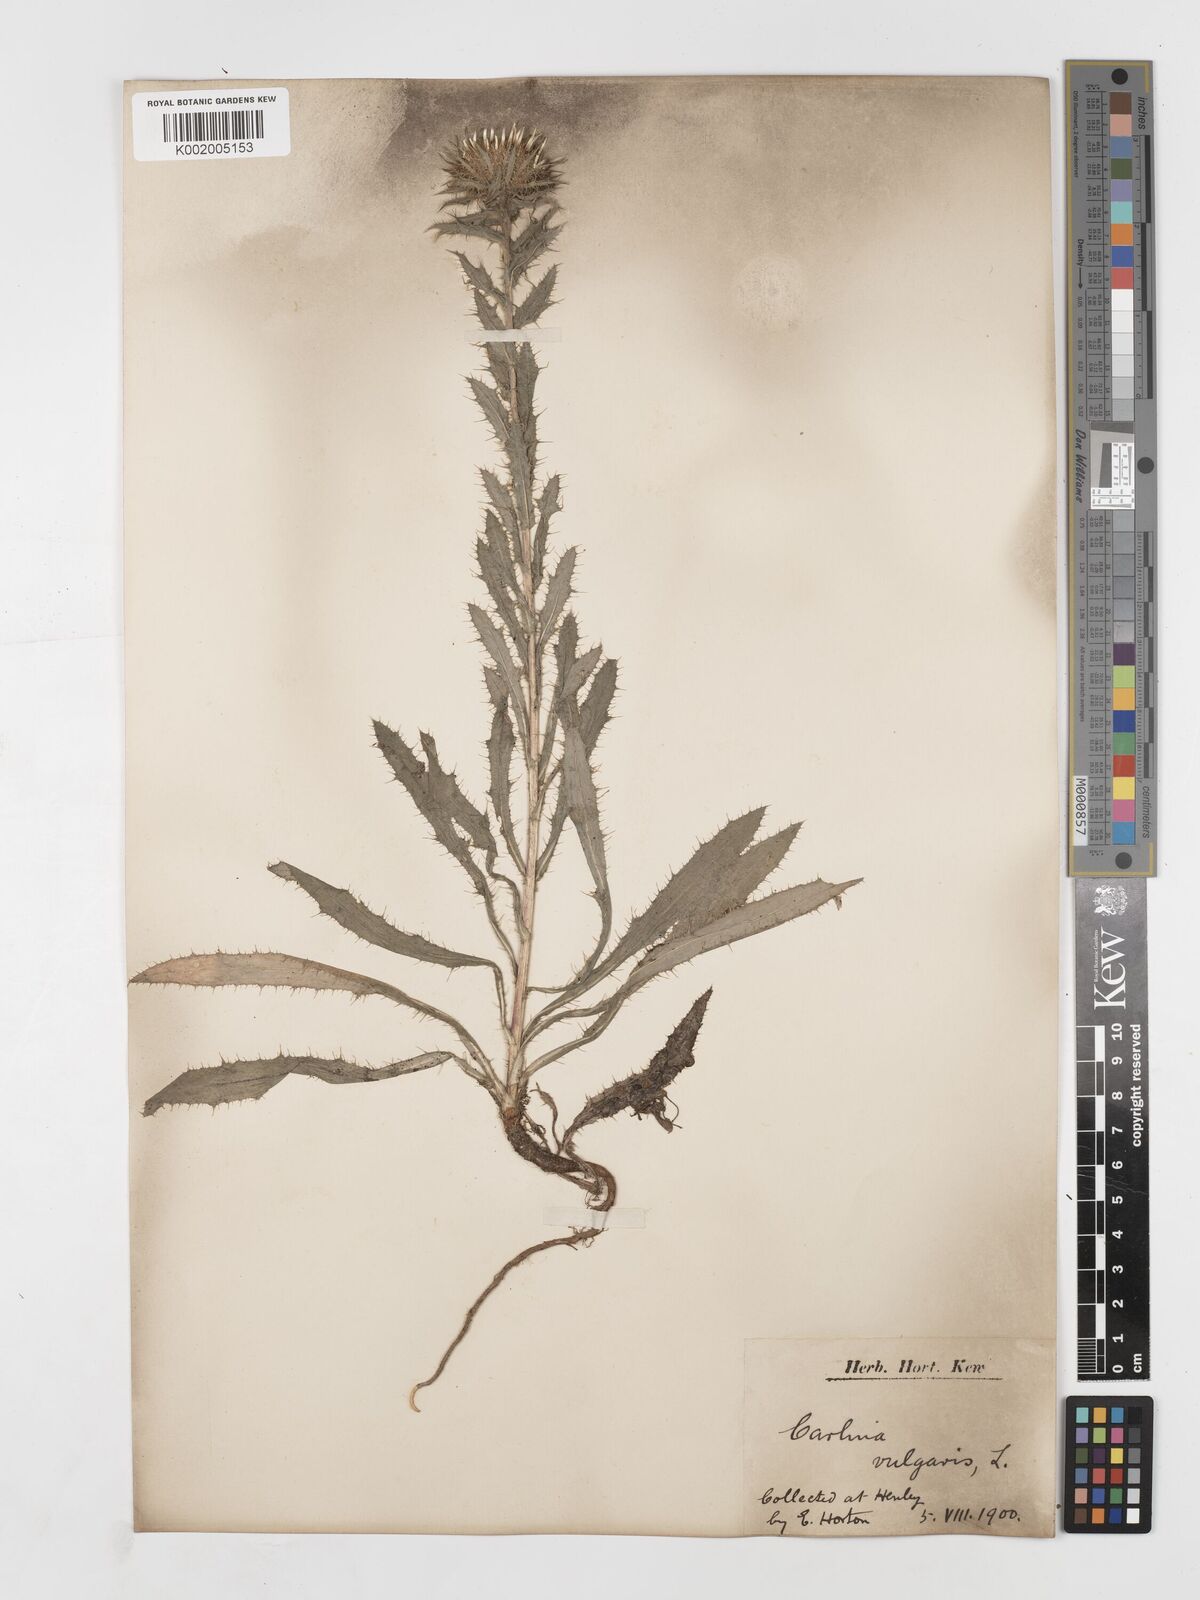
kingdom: Plantae
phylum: Tracheophyta
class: Magnoliopsida
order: Asterales
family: Asteraceae
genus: Carlina
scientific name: Carlina vulgaris
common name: Carline thistle
